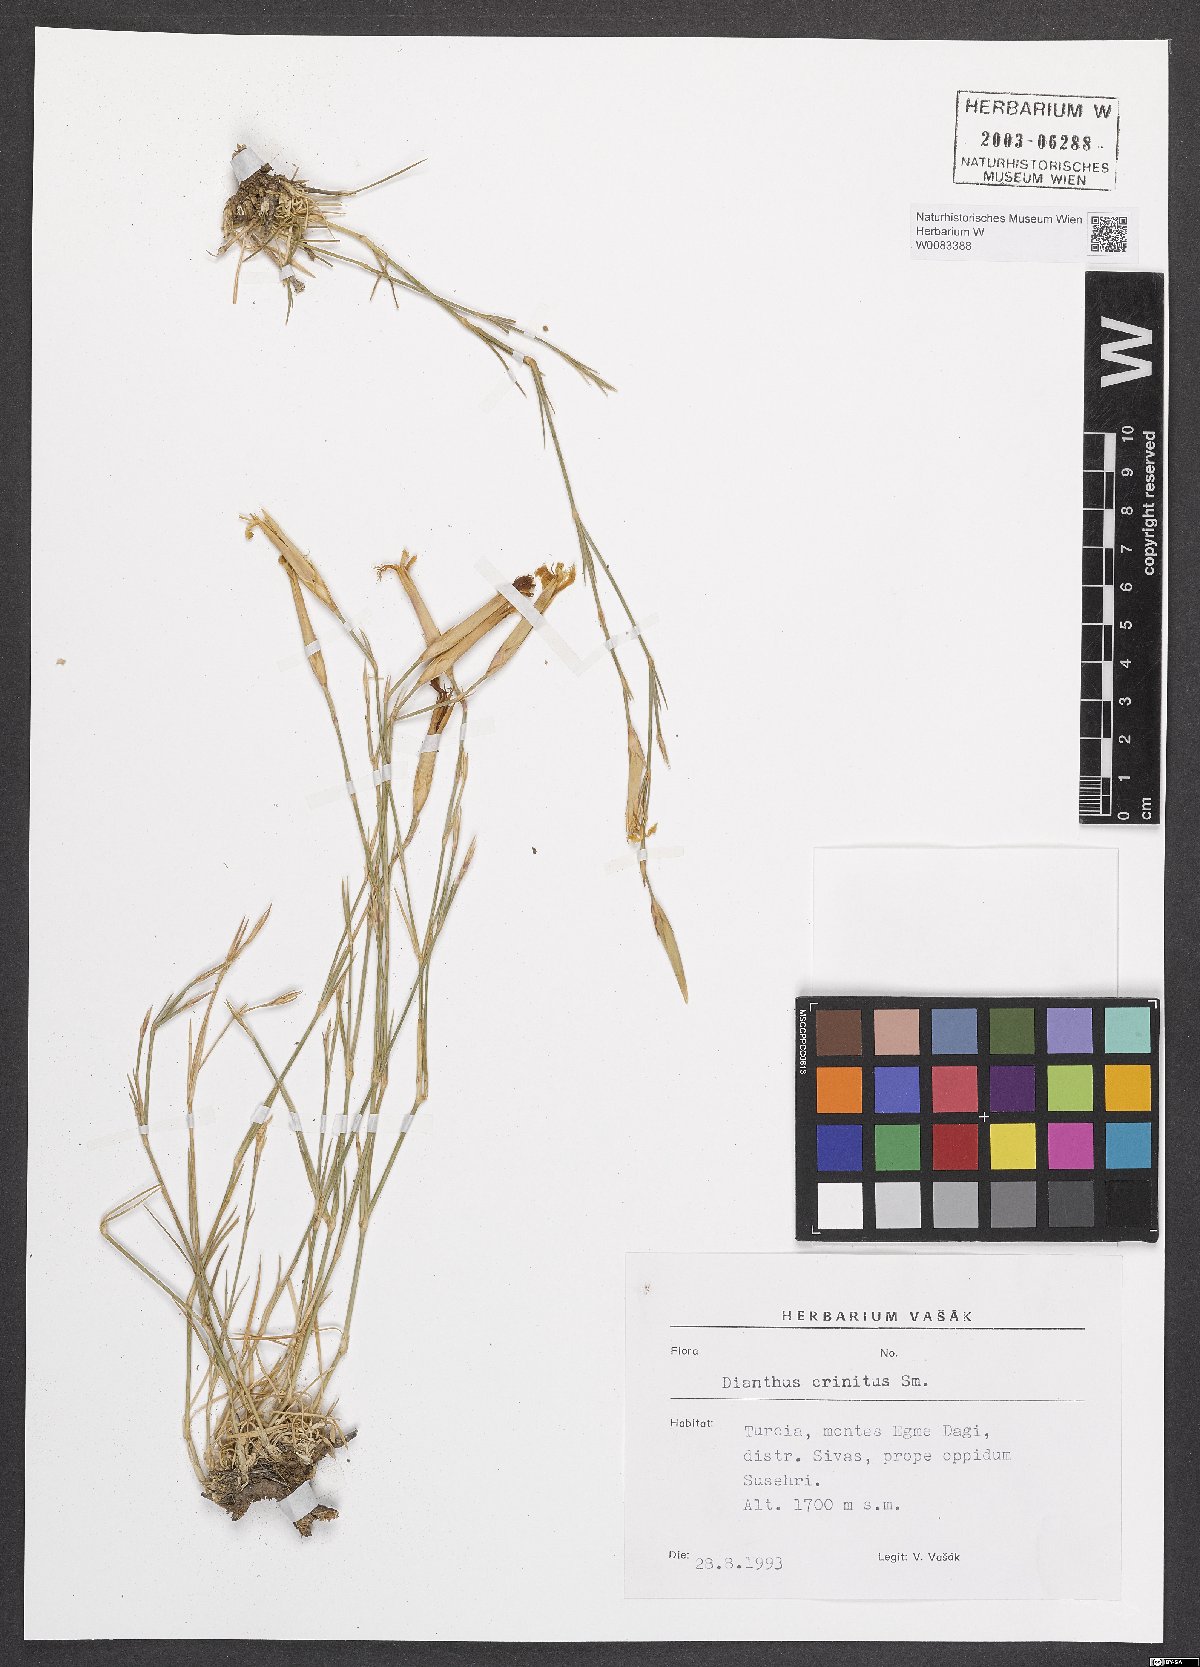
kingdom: Plantae
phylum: Tracheophyta
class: Magnoliopsida
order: Caryophyllales
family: Caryophyllaceae
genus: Dianthus
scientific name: Dianthus crinitus
